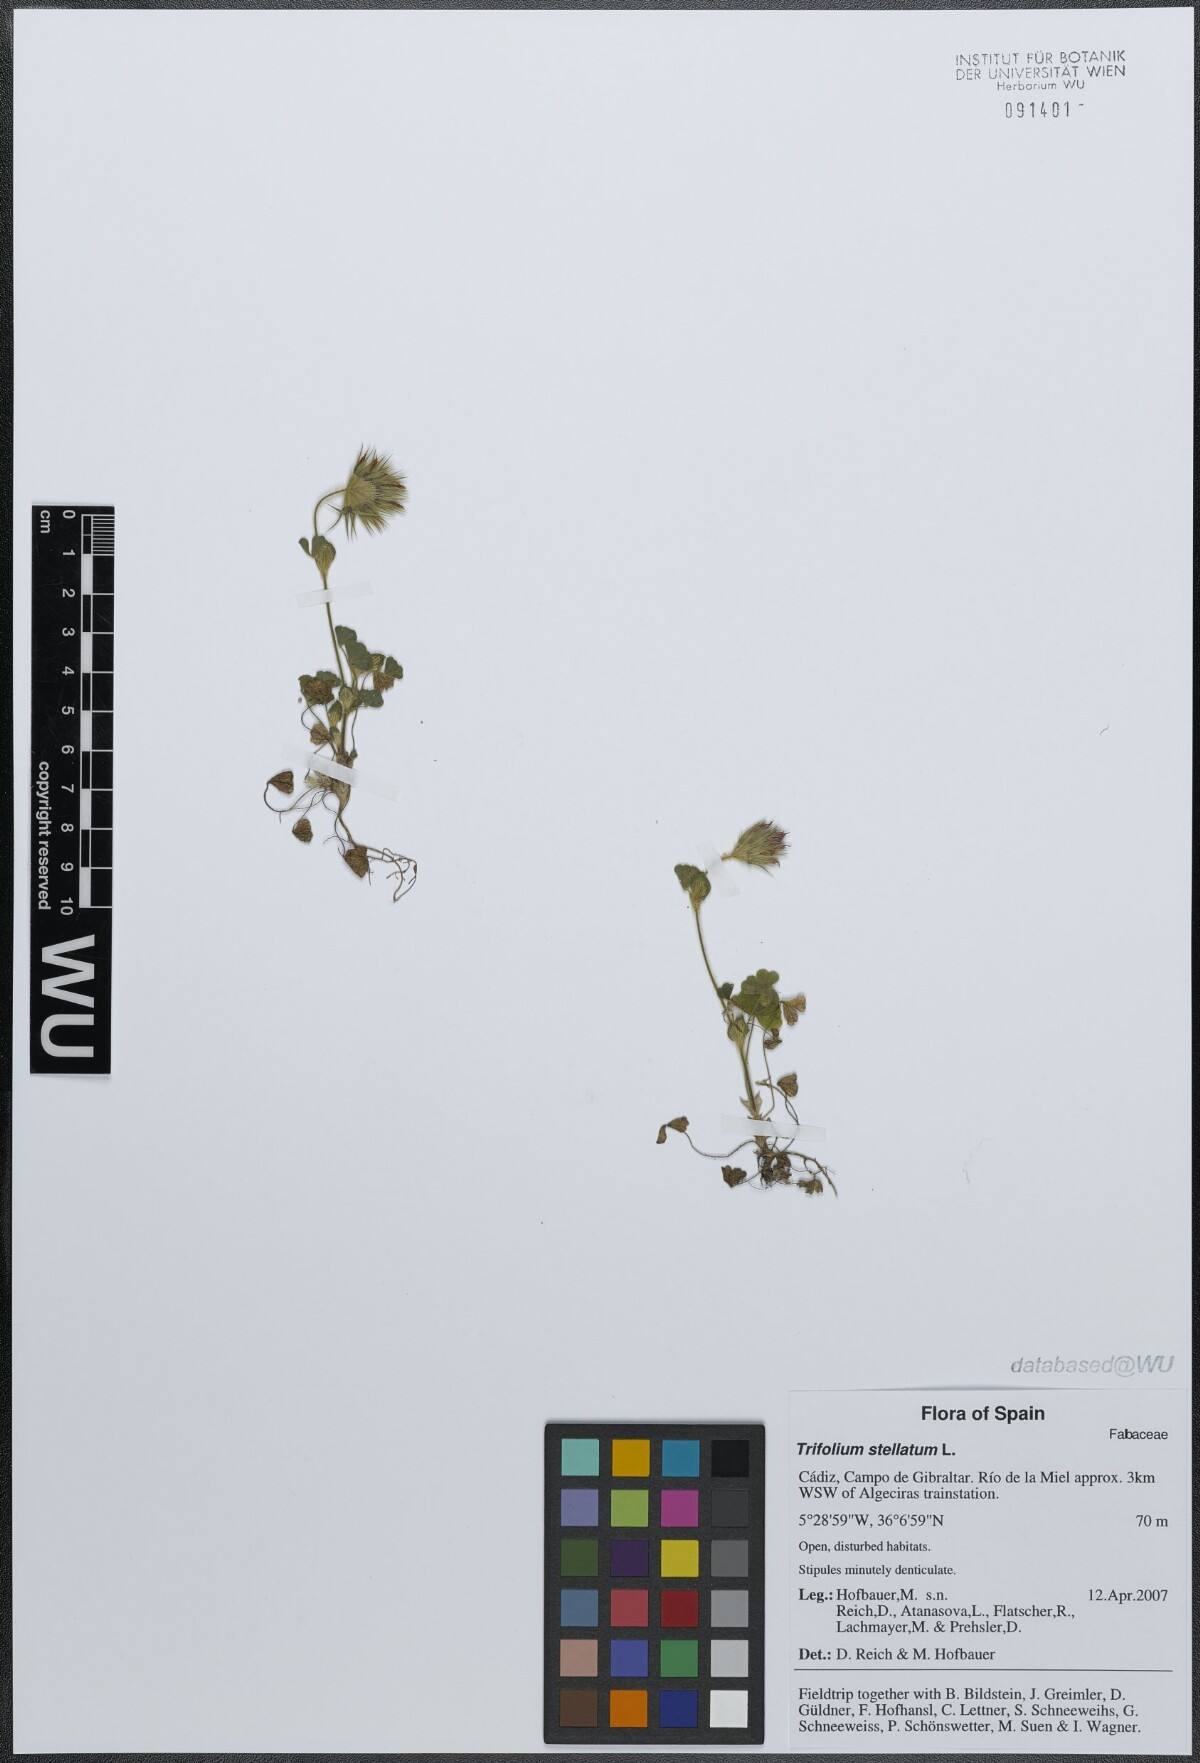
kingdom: Plantae
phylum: Tracheophyta
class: Magnoliopsida
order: Fabales
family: Fabaceae
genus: Trifolium
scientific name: Trifolium stellatum
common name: Starry clover
